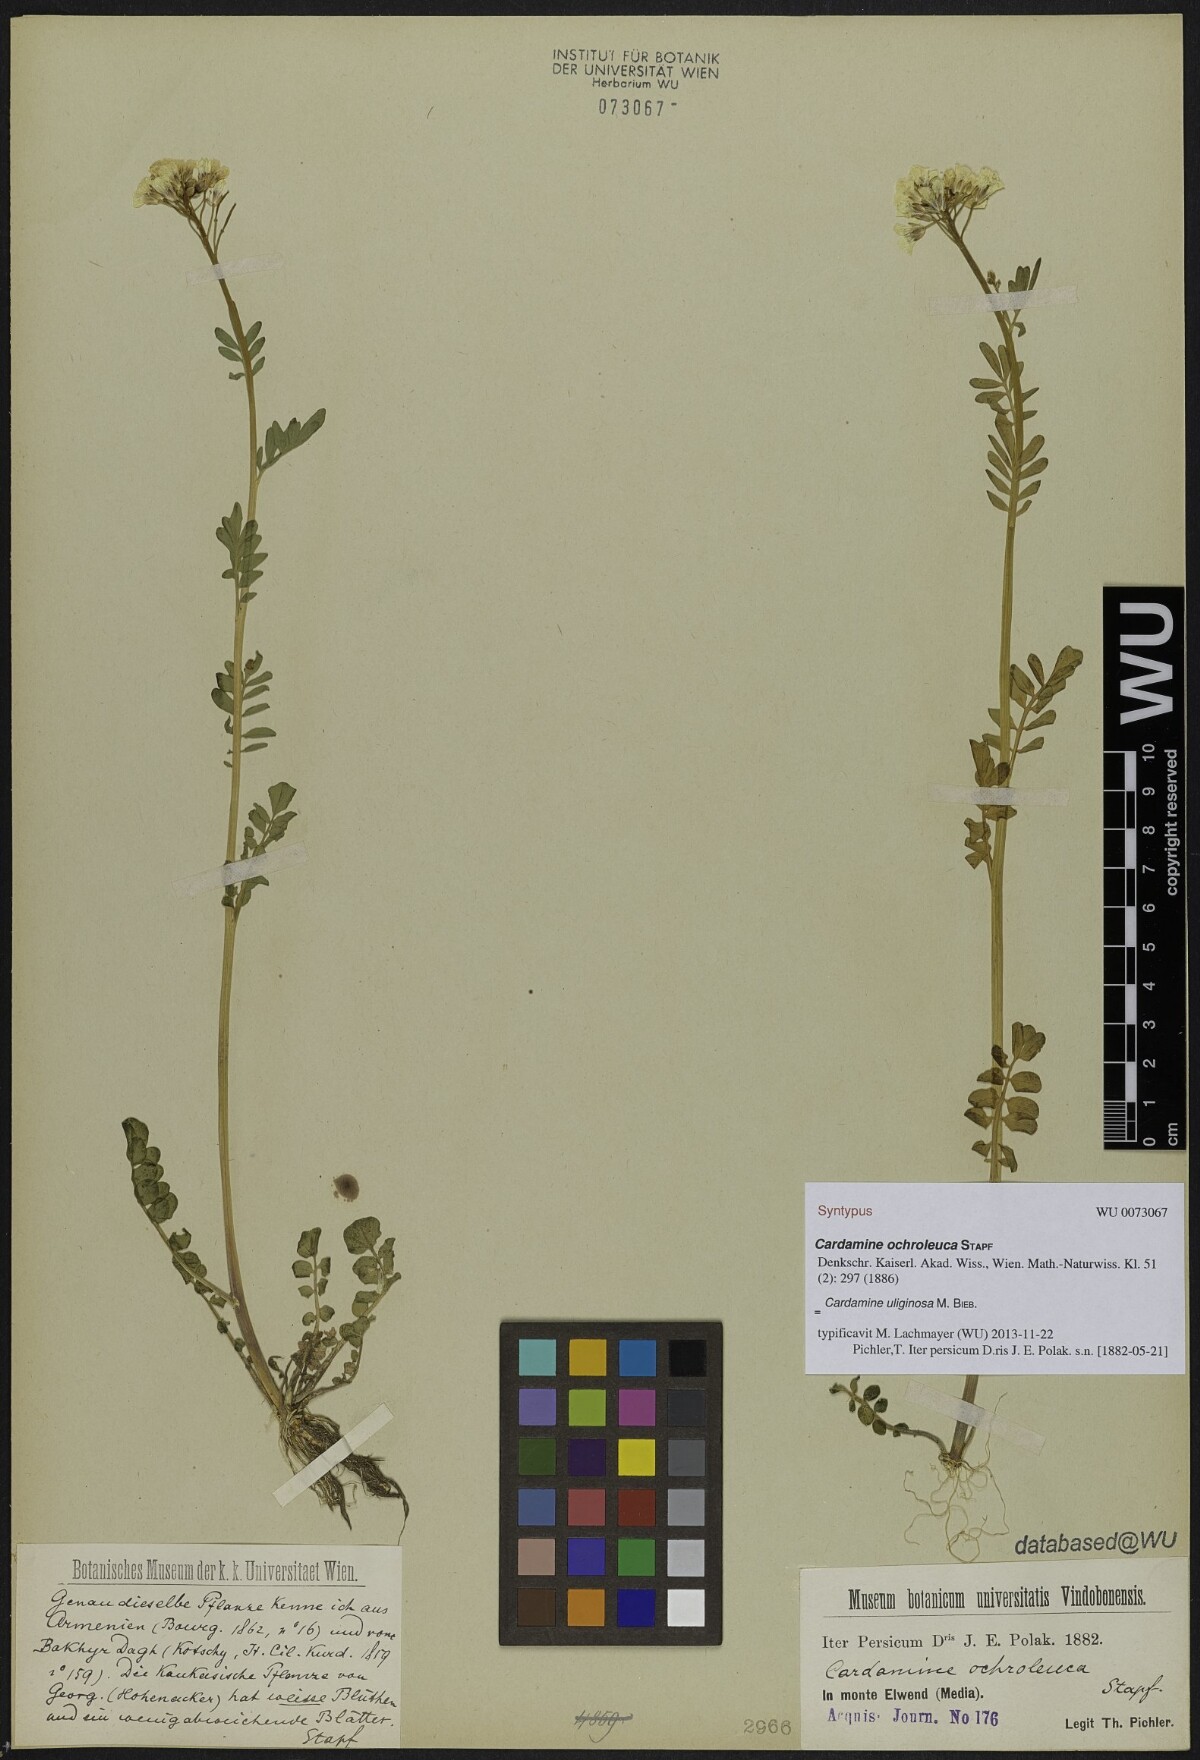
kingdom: Plantae
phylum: Tracheophyta
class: Magnoliopsida
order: Brassicales
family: Brassicaceae
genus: Cardamine
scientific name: Cardamine uliginosa
